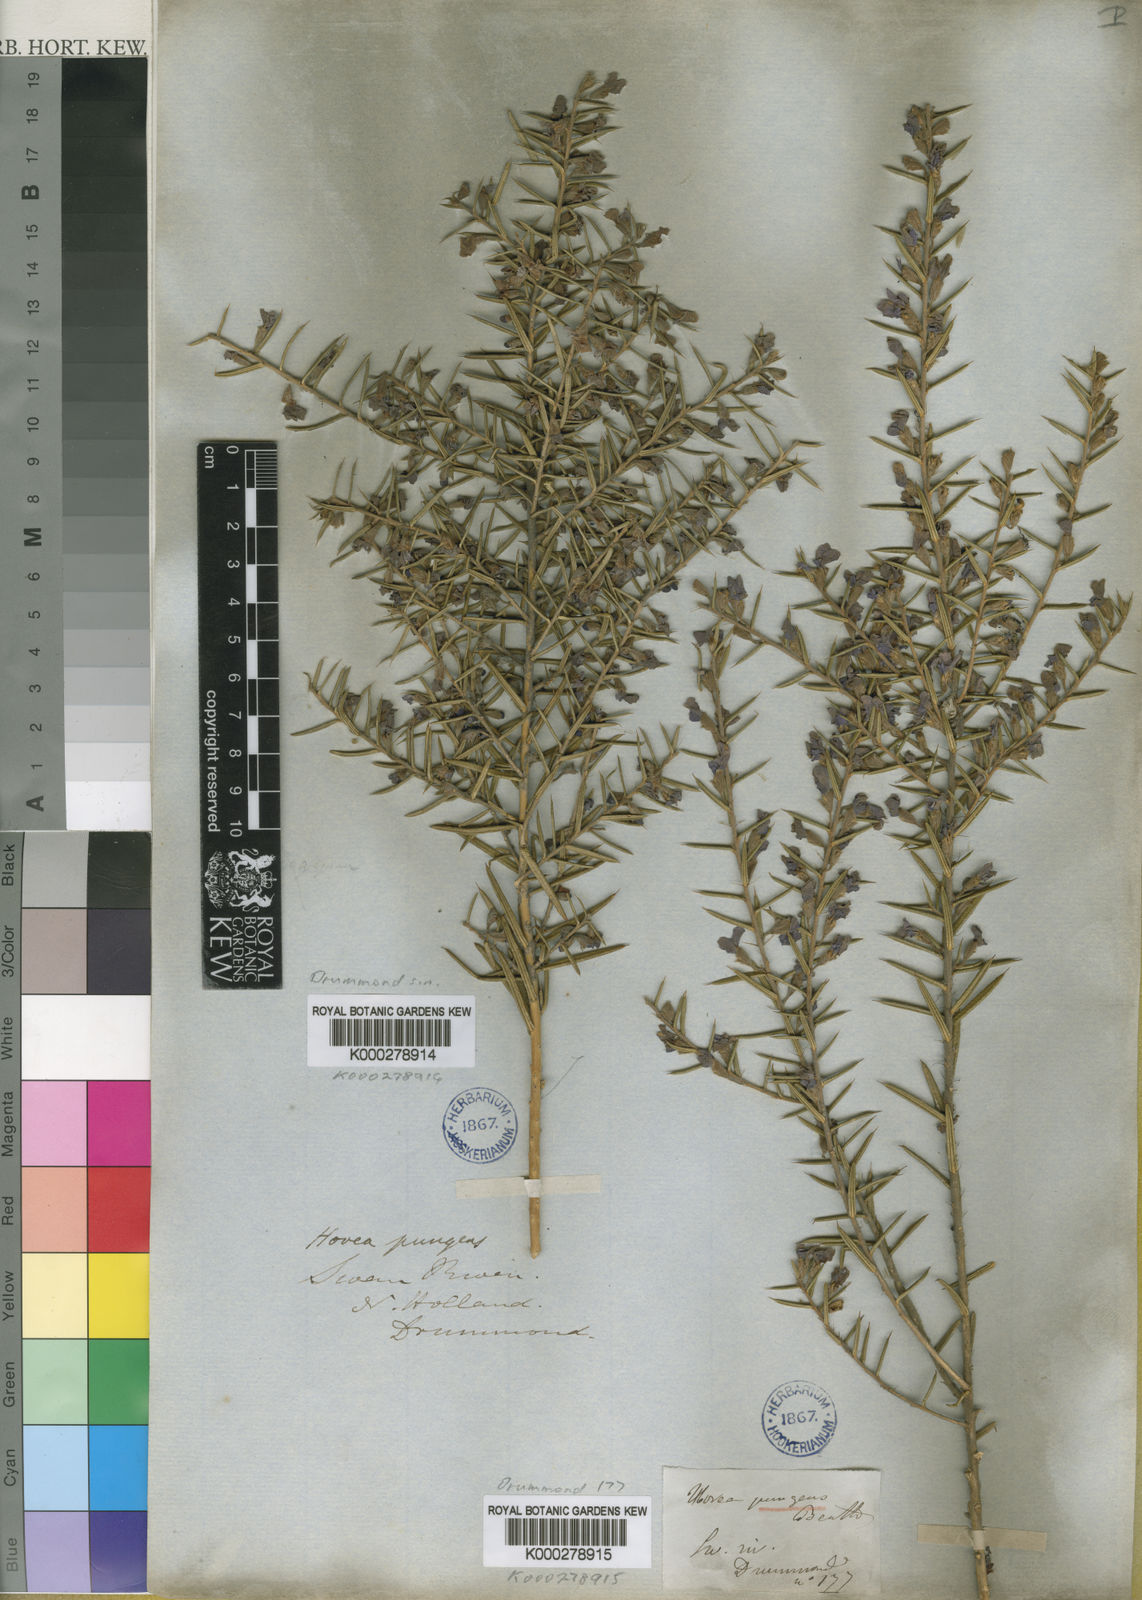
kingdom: Plantae
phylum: Tracheophyta
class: Magnoliopsida
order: Fabales
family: Fabaceae
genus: Hovea
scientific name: Hovea pungens
